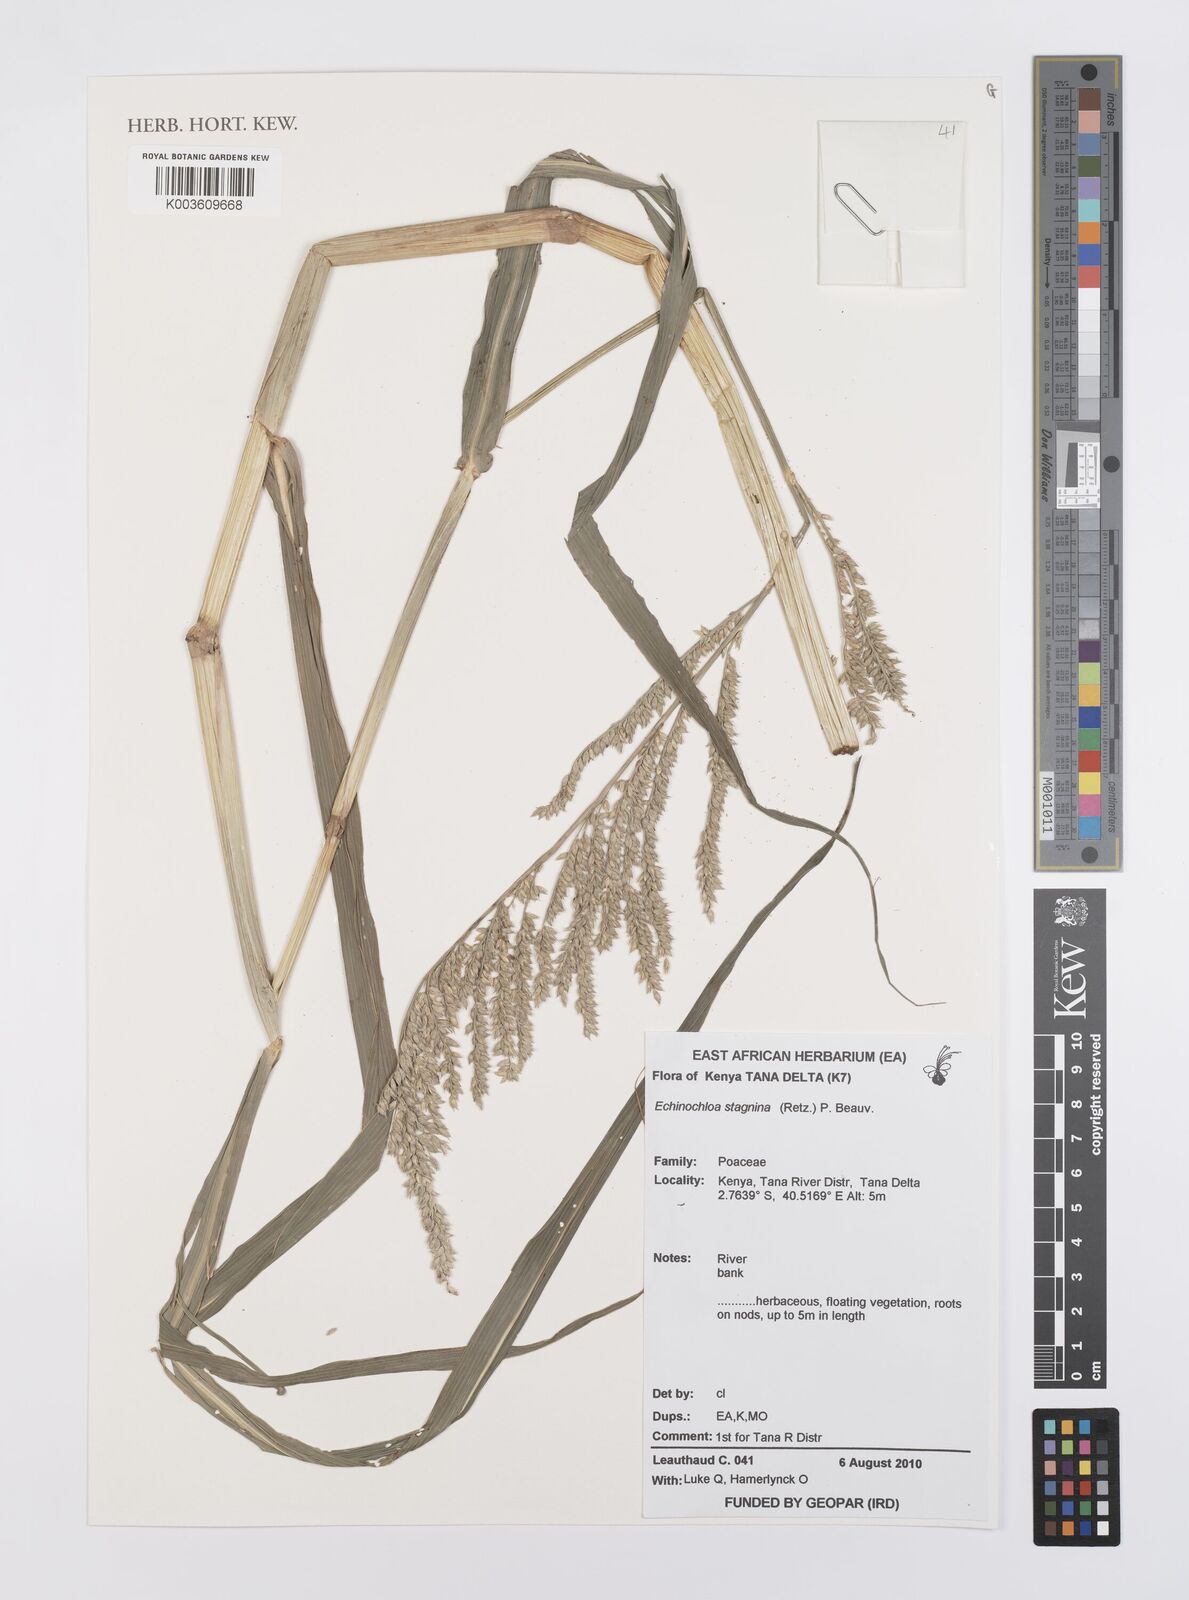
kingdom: Plantae
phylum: Tracheophyta
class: Liliopsida
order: Poales
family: Poaceae
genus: Echinochloa
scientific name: Echinochloa stagnina
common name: Burgu grass
